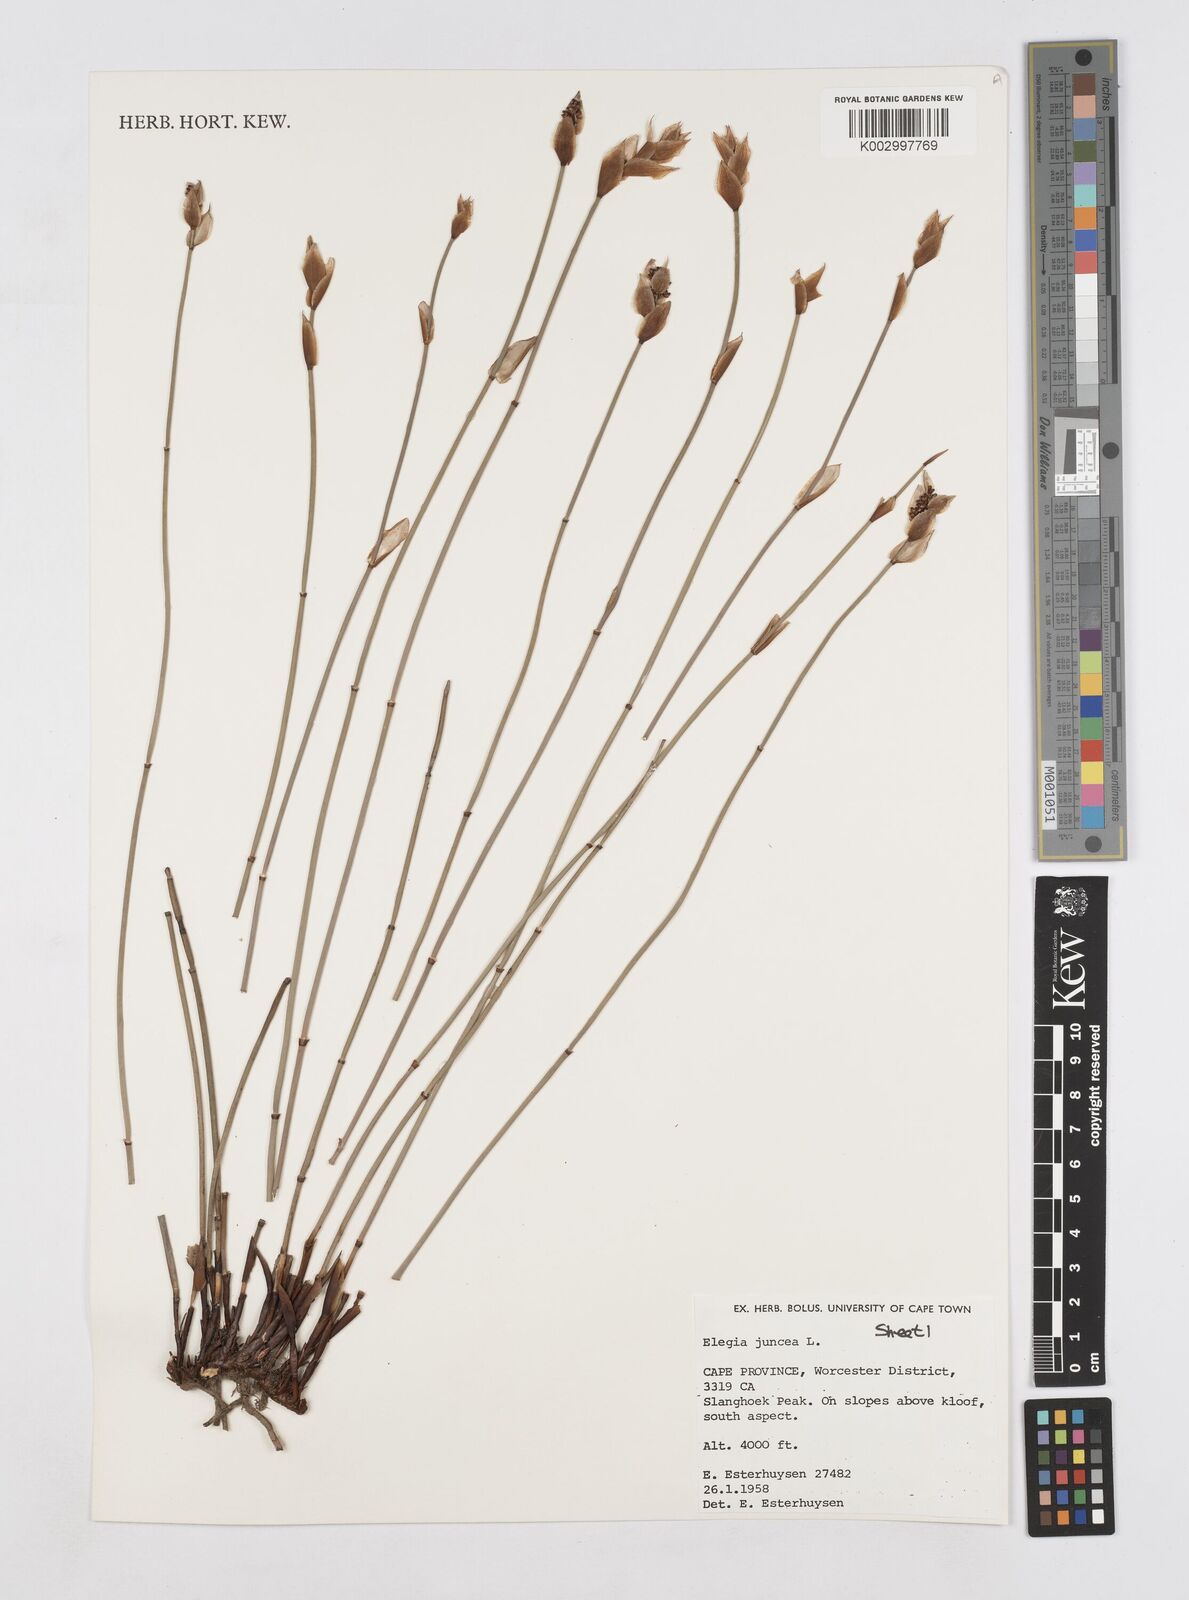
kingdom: Plantae
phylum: Tracheophyta
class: Liliopsida
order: Poales
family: Restionaceae
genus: Elegia
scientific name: Elegia juncea
